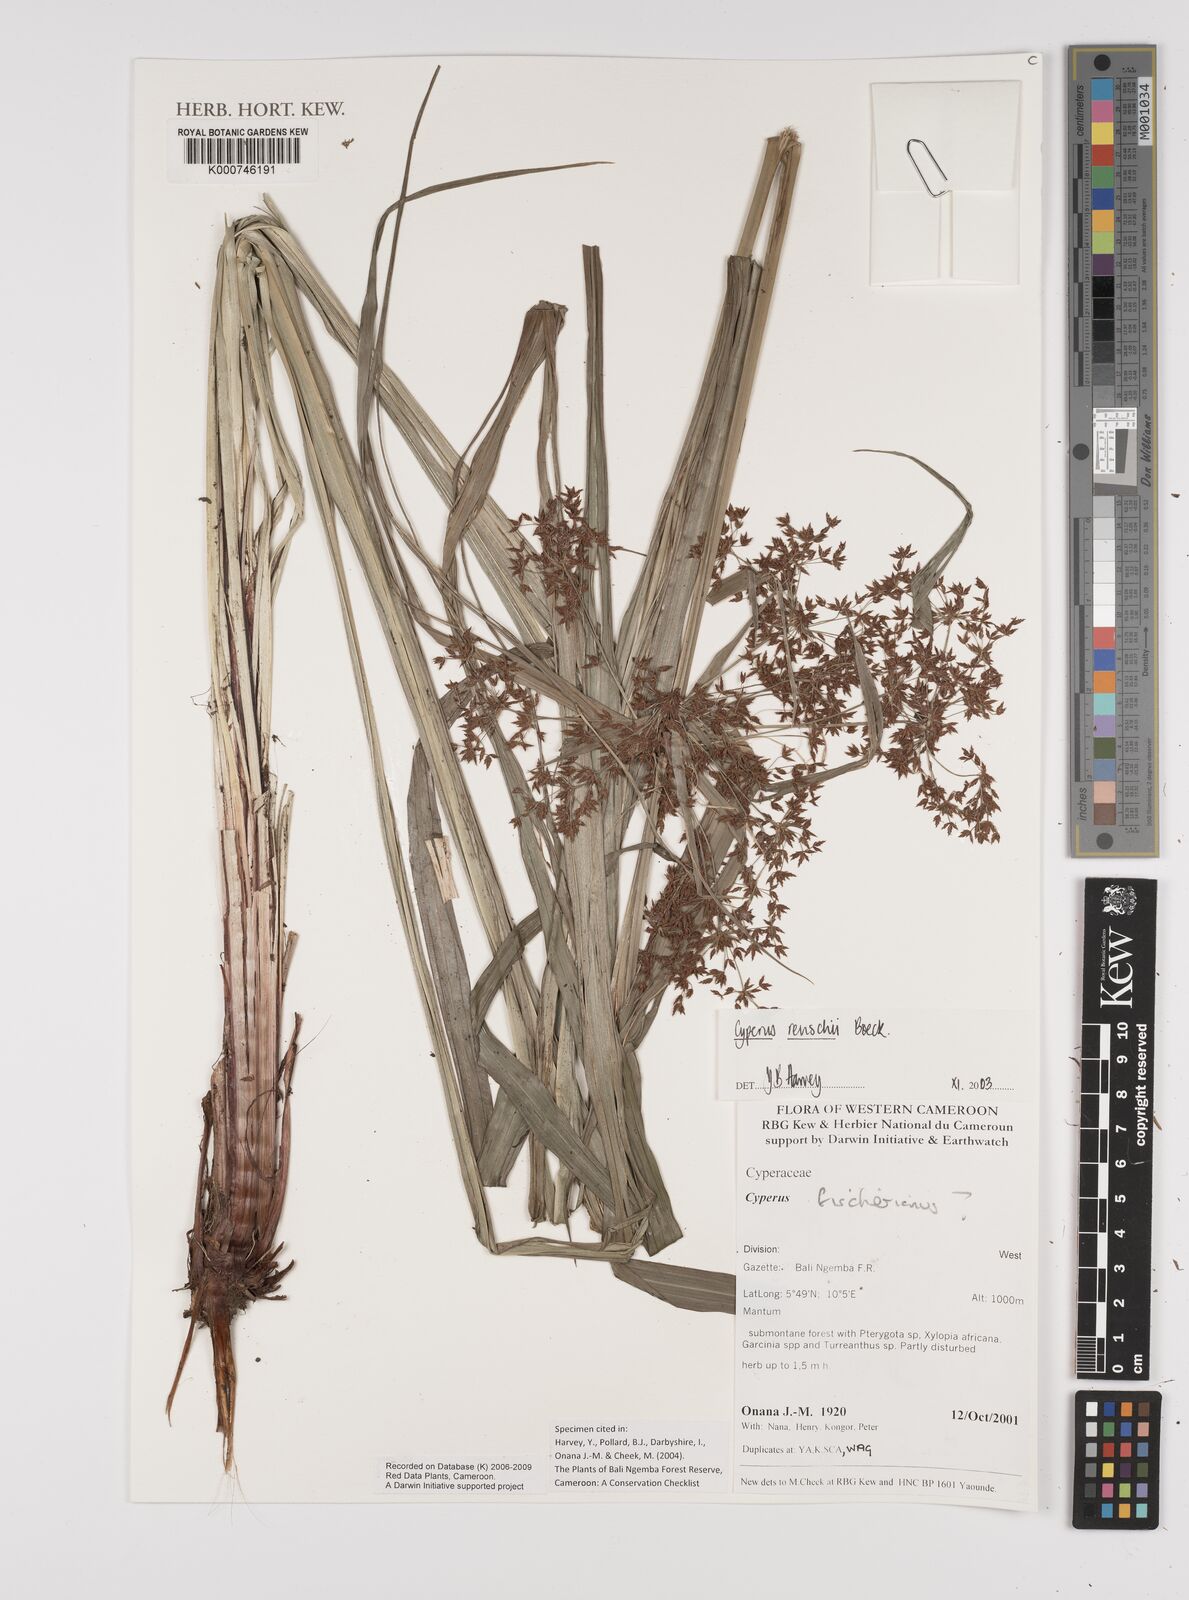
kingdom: Plantae
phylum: Tracheophyta
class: Liliopsida
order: Poales
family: Cyperaceae
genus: Cyperus
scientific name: Cyperus renschii
